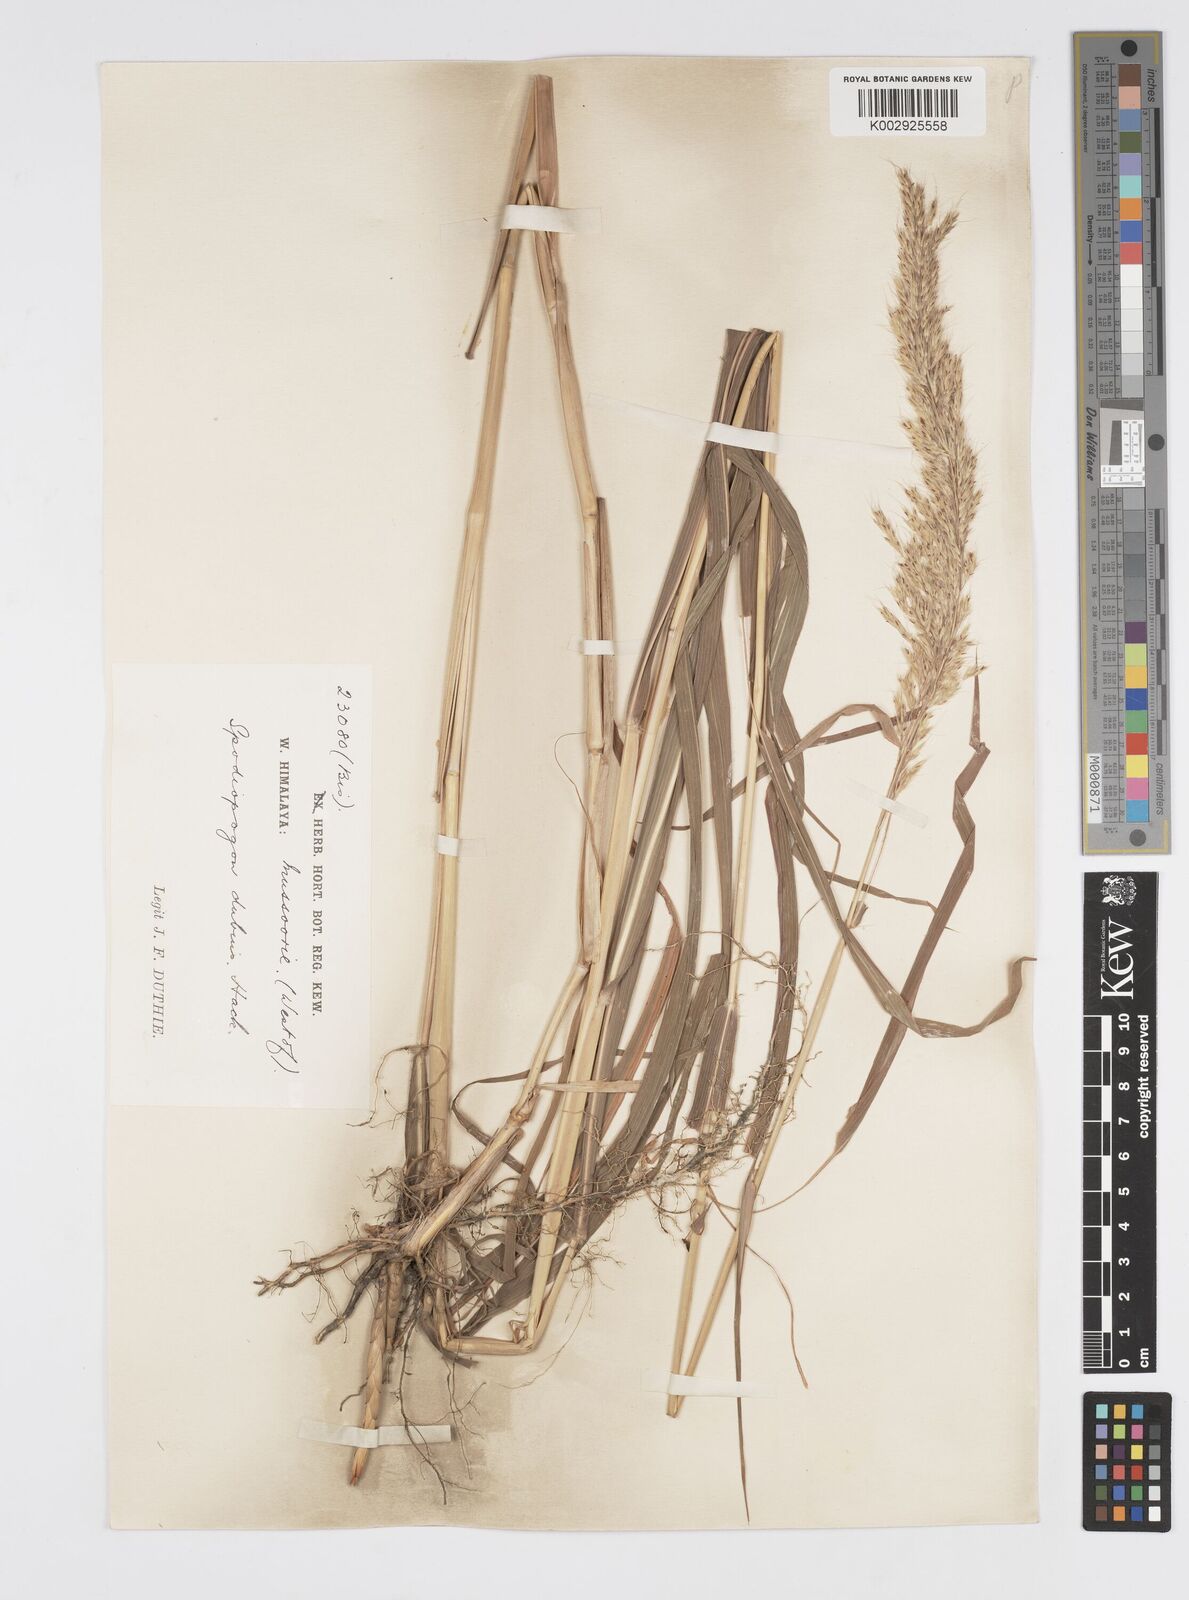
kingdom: Plantae
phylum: Tracheophyta
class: Liliopsida
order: Poales
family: Poaceae
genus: Spodiopogon
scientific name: Spodiopogon dubius
